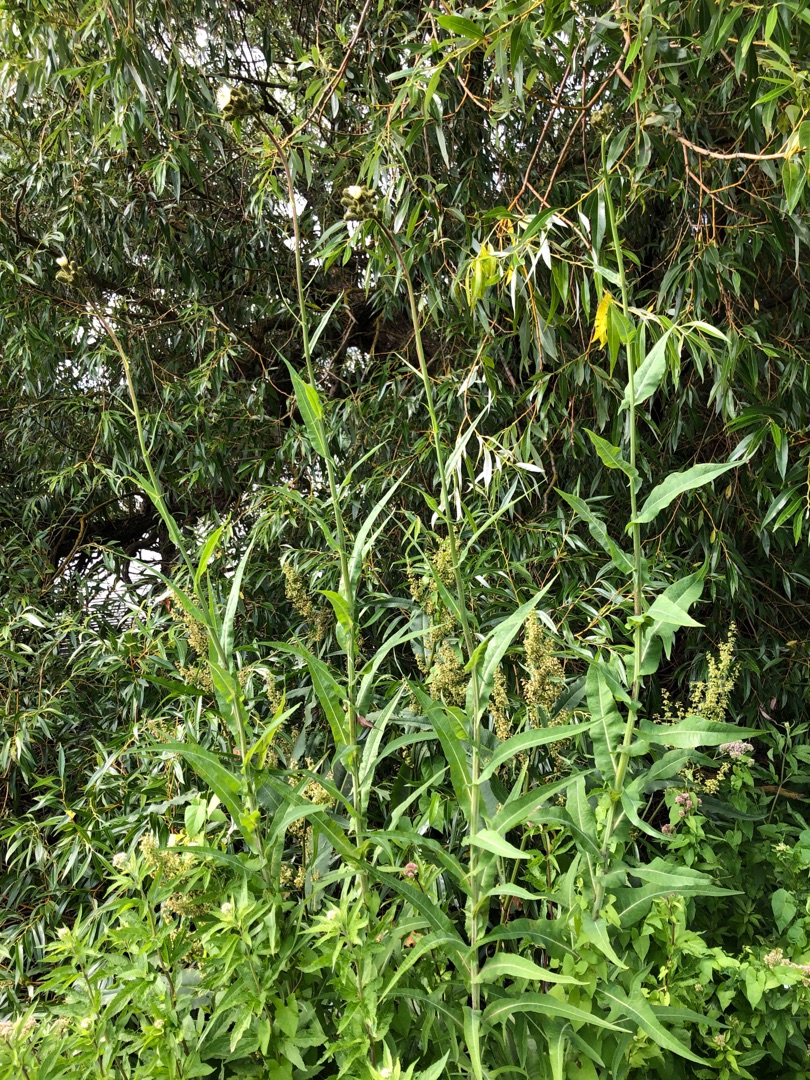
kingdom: Plantae
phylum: Tracheophyta
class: Magnoliopsida
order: Asterales
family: Asteraceae
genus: Sonchus
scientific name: Sonchus palustris
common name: Kær-svinemælk
